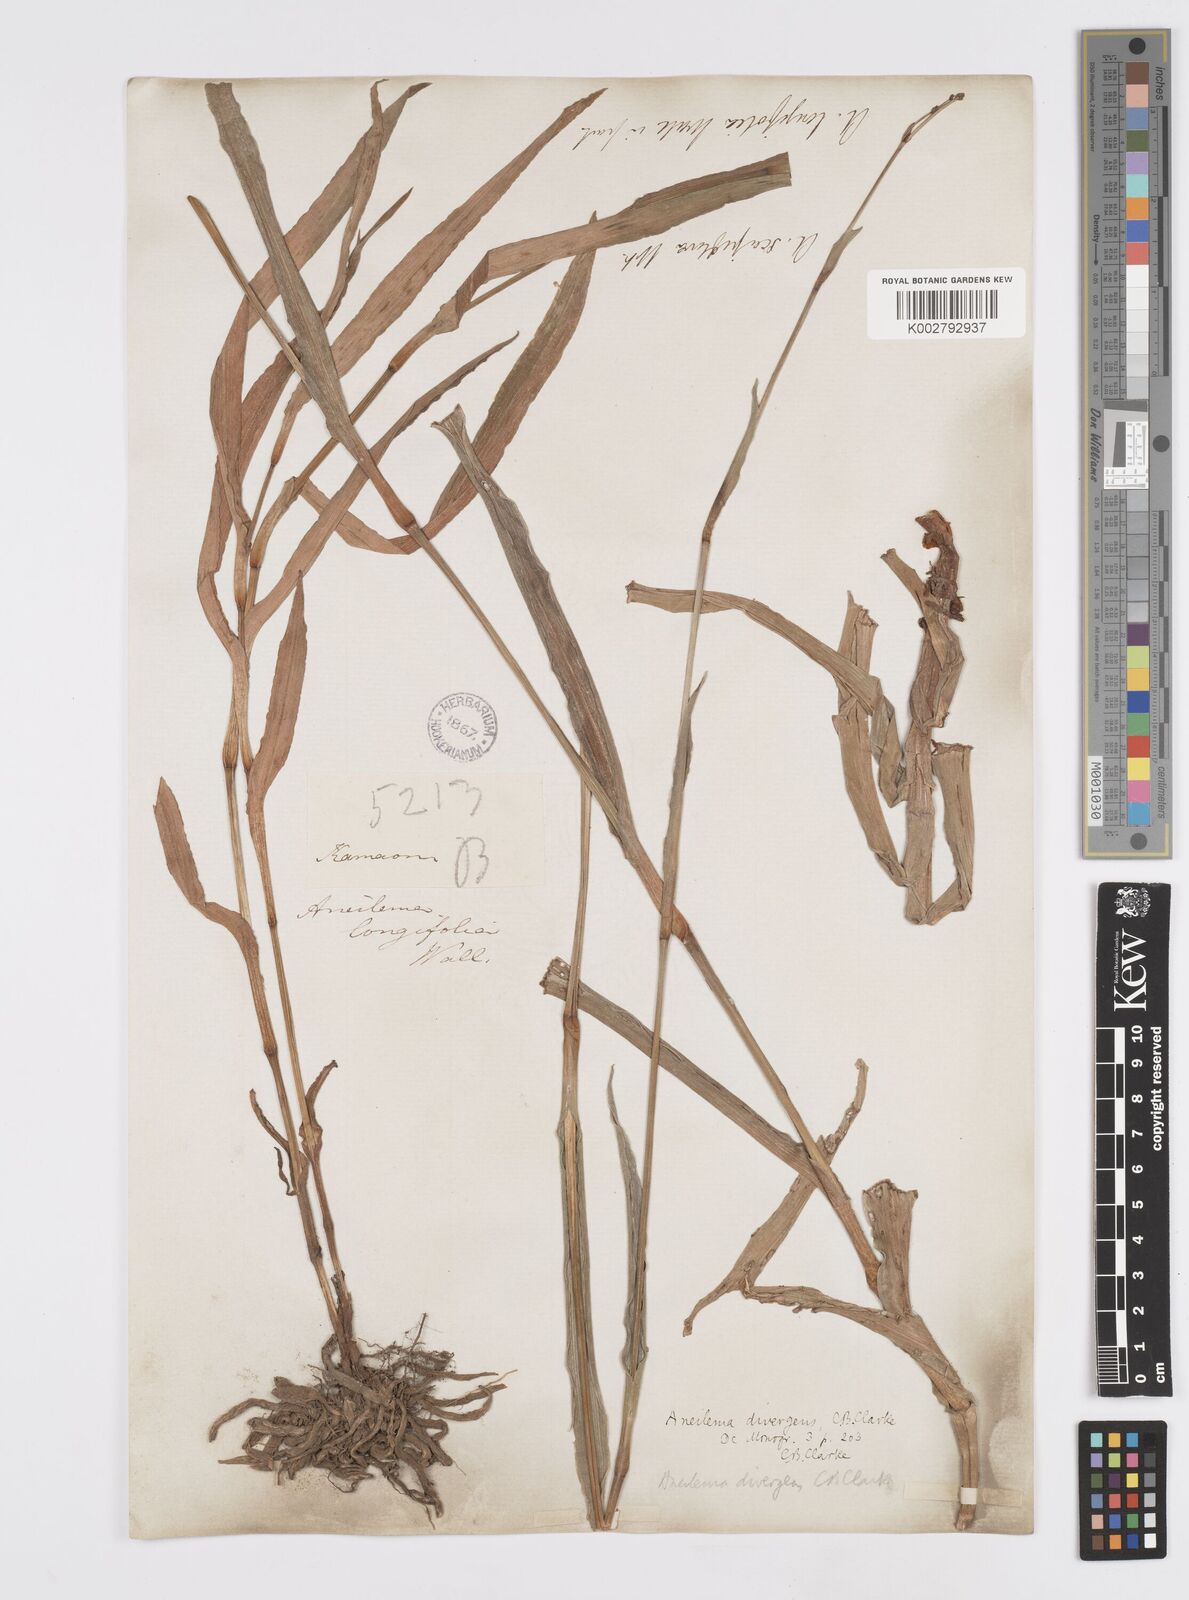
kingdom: Plantae
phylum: Tracheophyta
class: Liliopsida
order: Commelinales
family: Commelinaceae
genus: Murdannia
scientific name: Murdannia divergens
